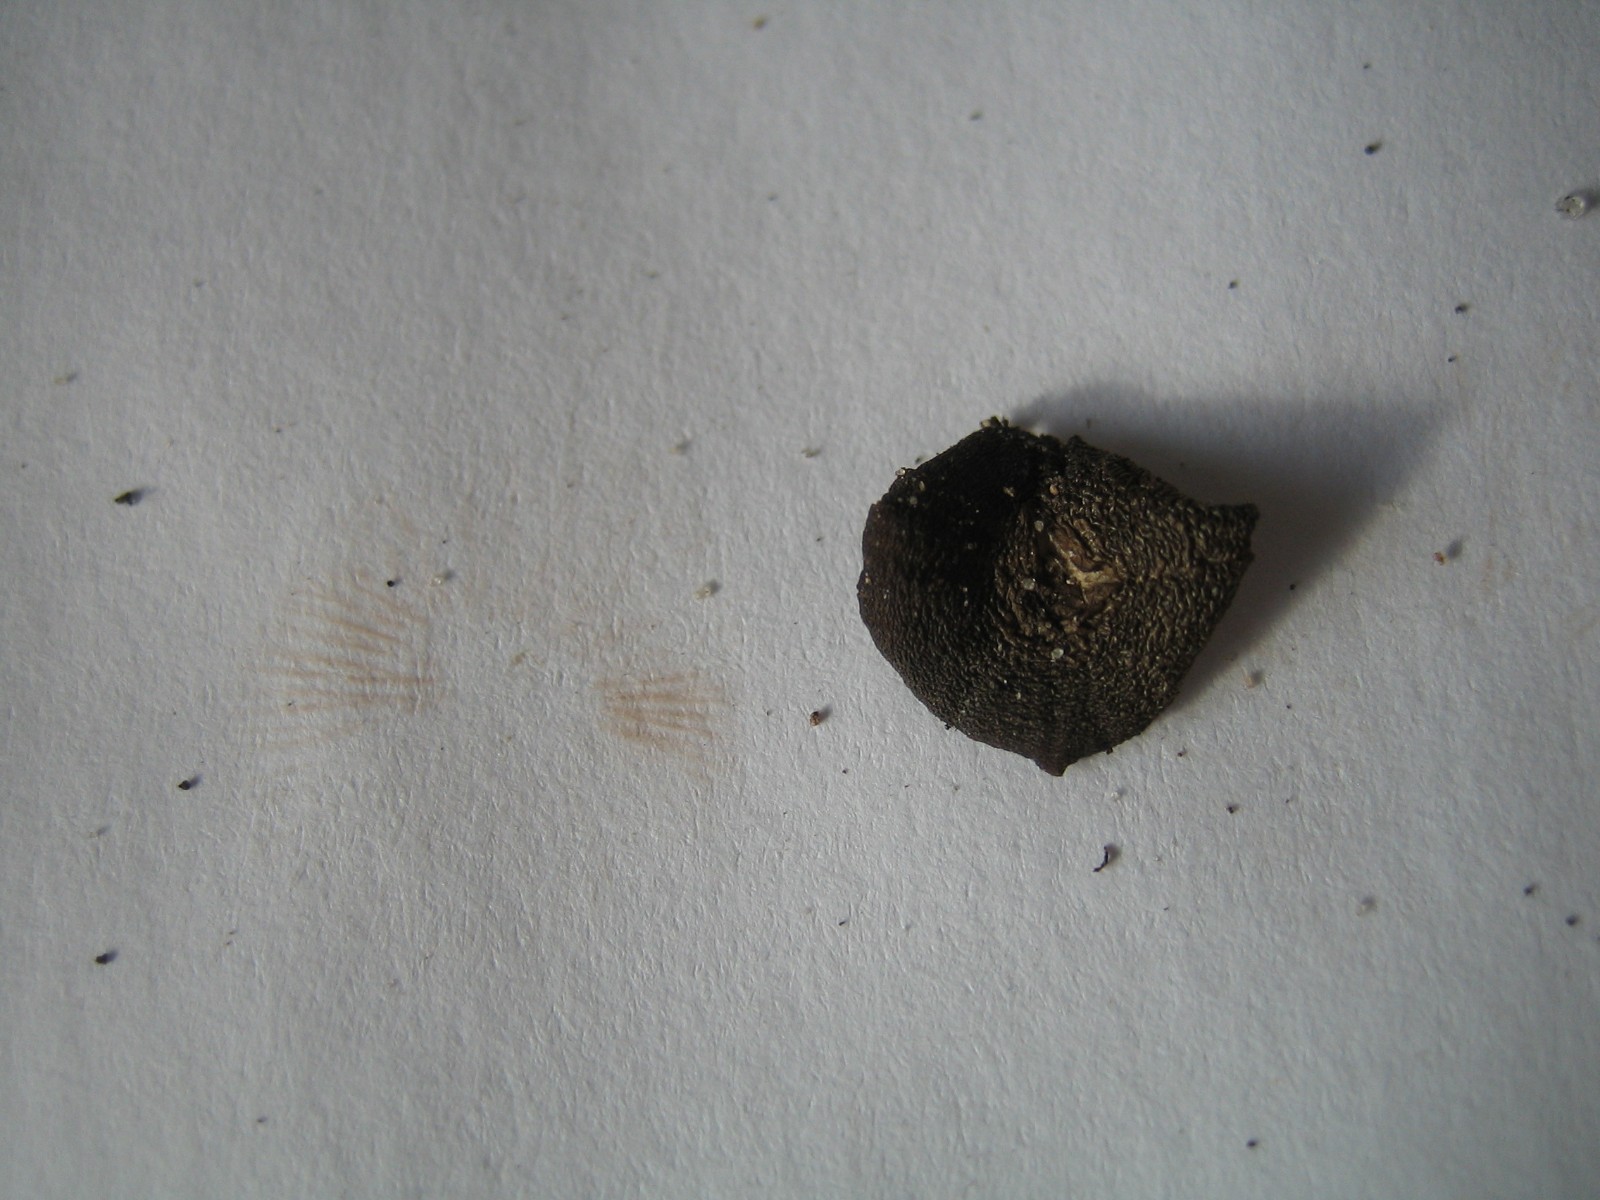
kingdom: Fungi
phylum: Basidiomycota
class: Agaricomycetes
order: Agaricales
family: Entolomataceae
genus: Entoloma
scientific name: Entoloma
